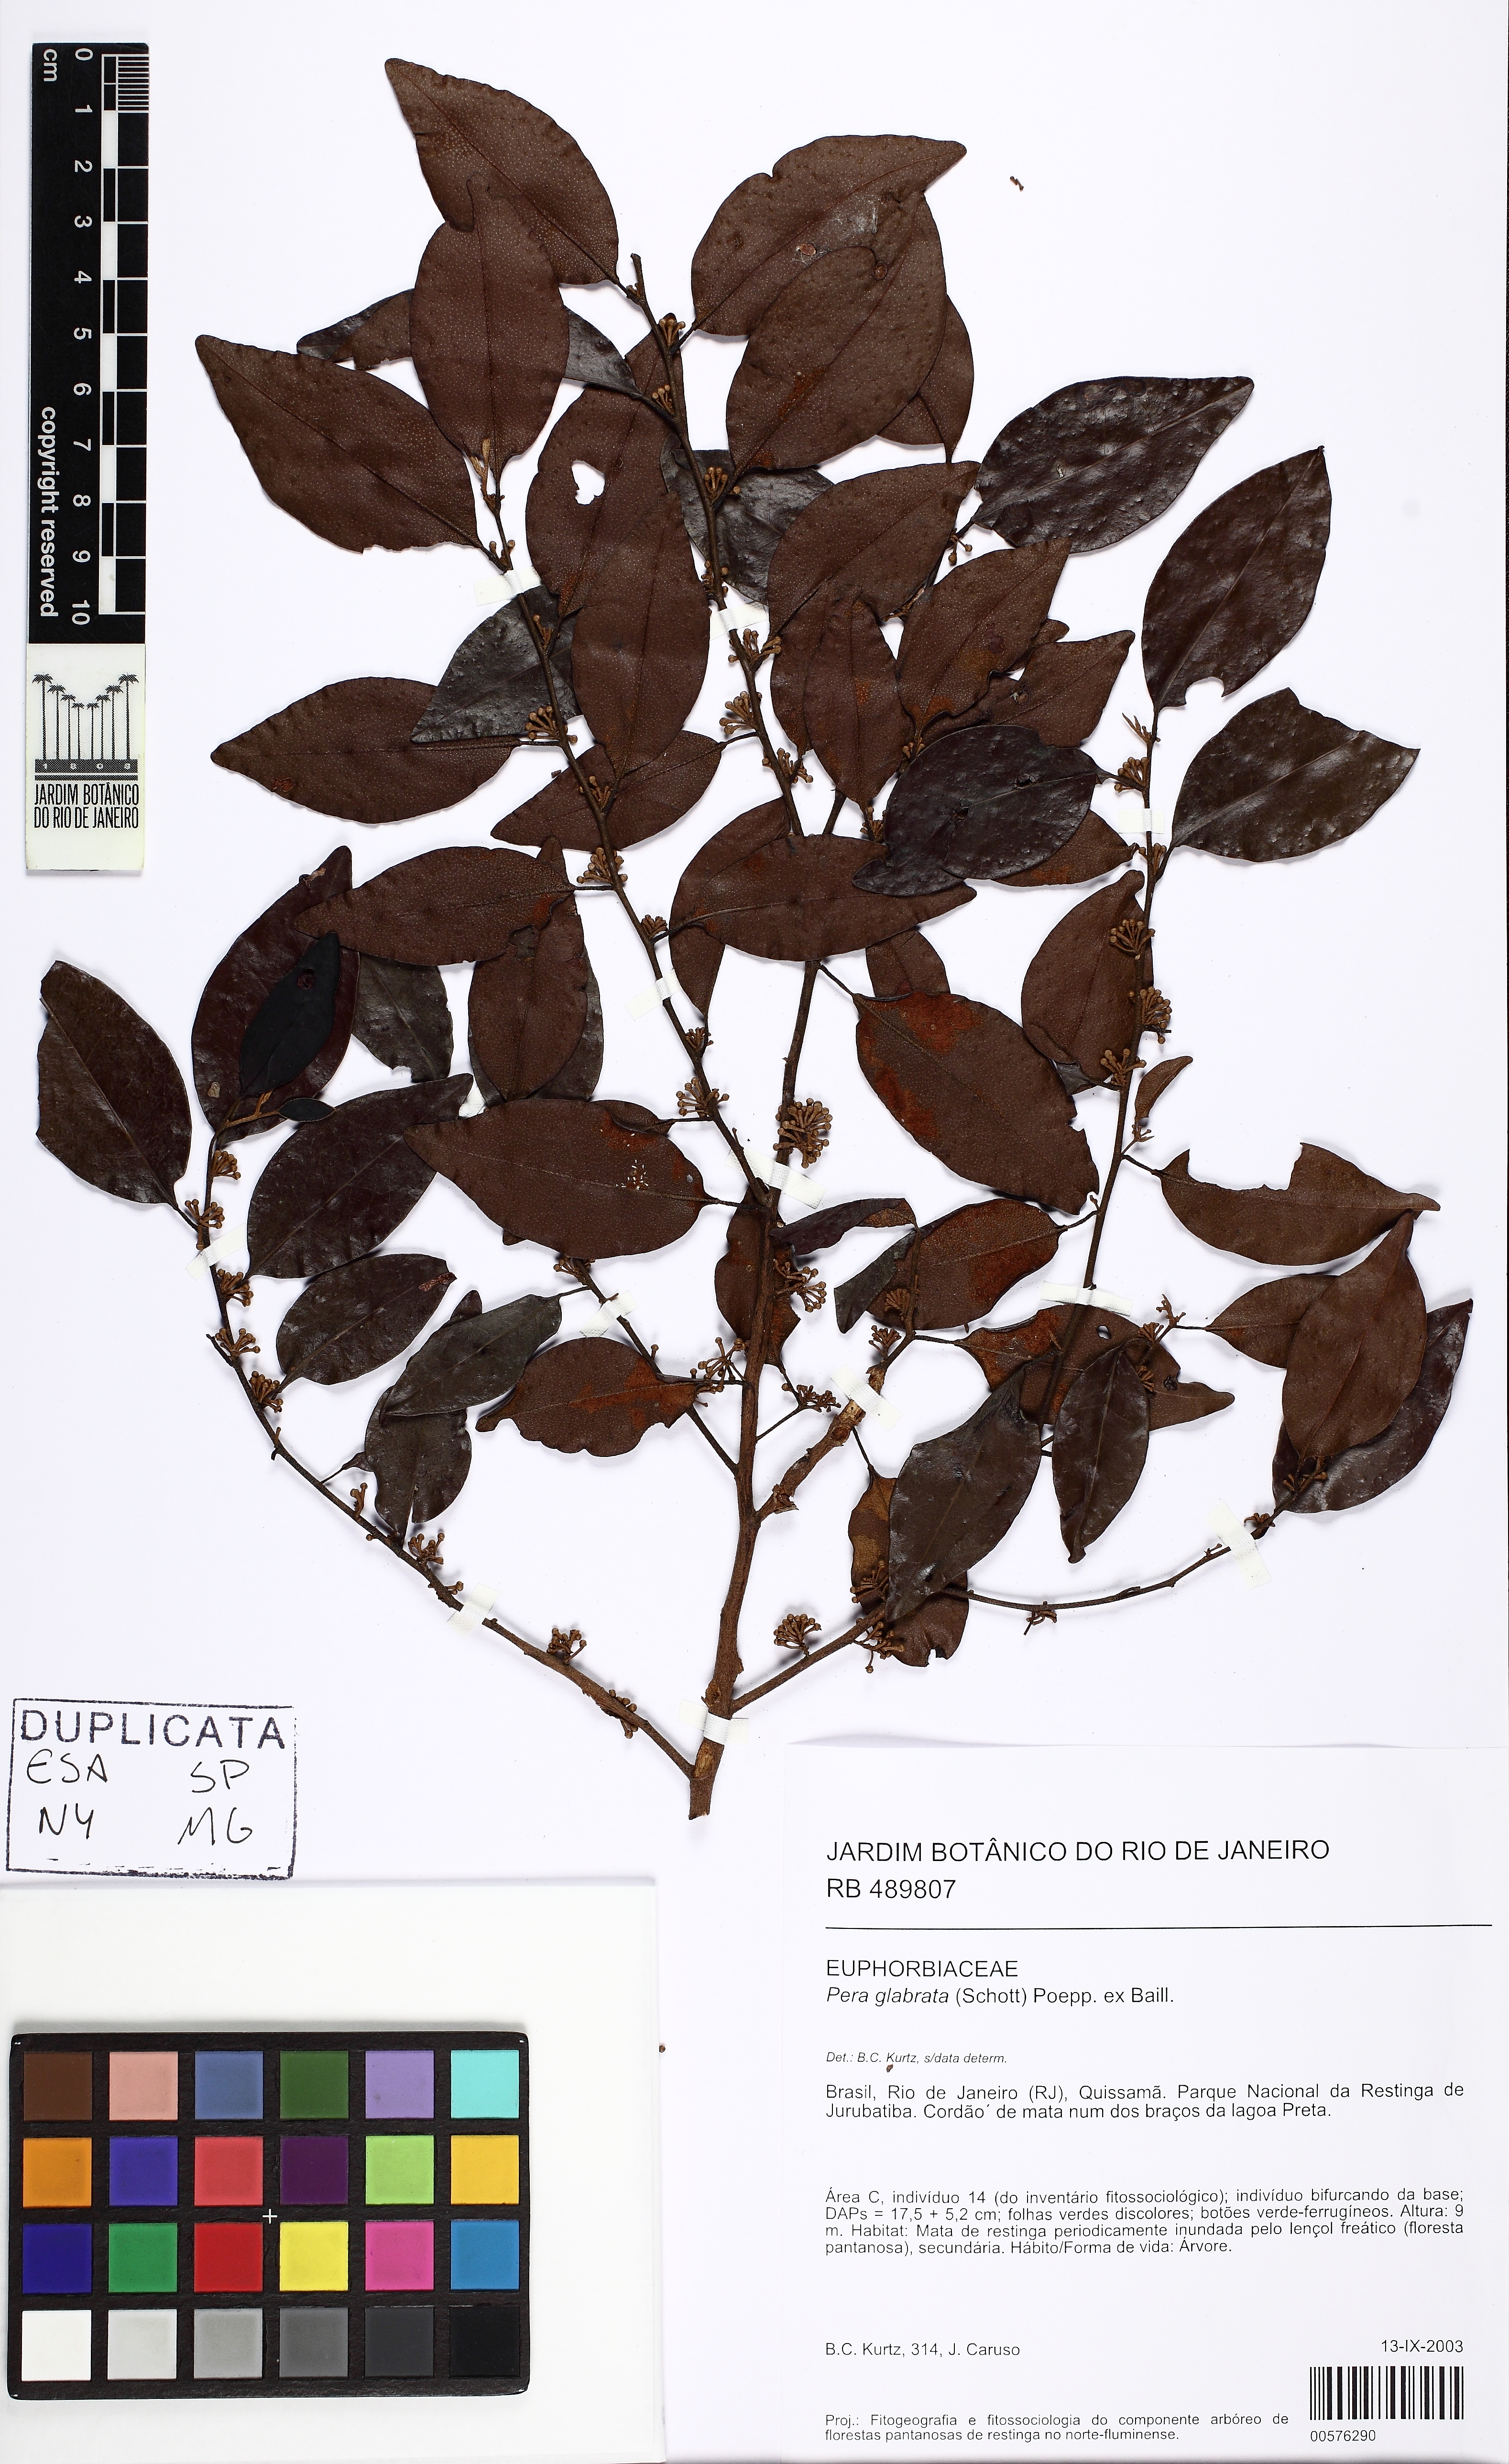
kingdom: Plantae
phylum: Tracheophyta
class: Magnoliopsida
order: Malpighiales
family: Peraceae
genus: Pera
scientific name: Pera glabrata
